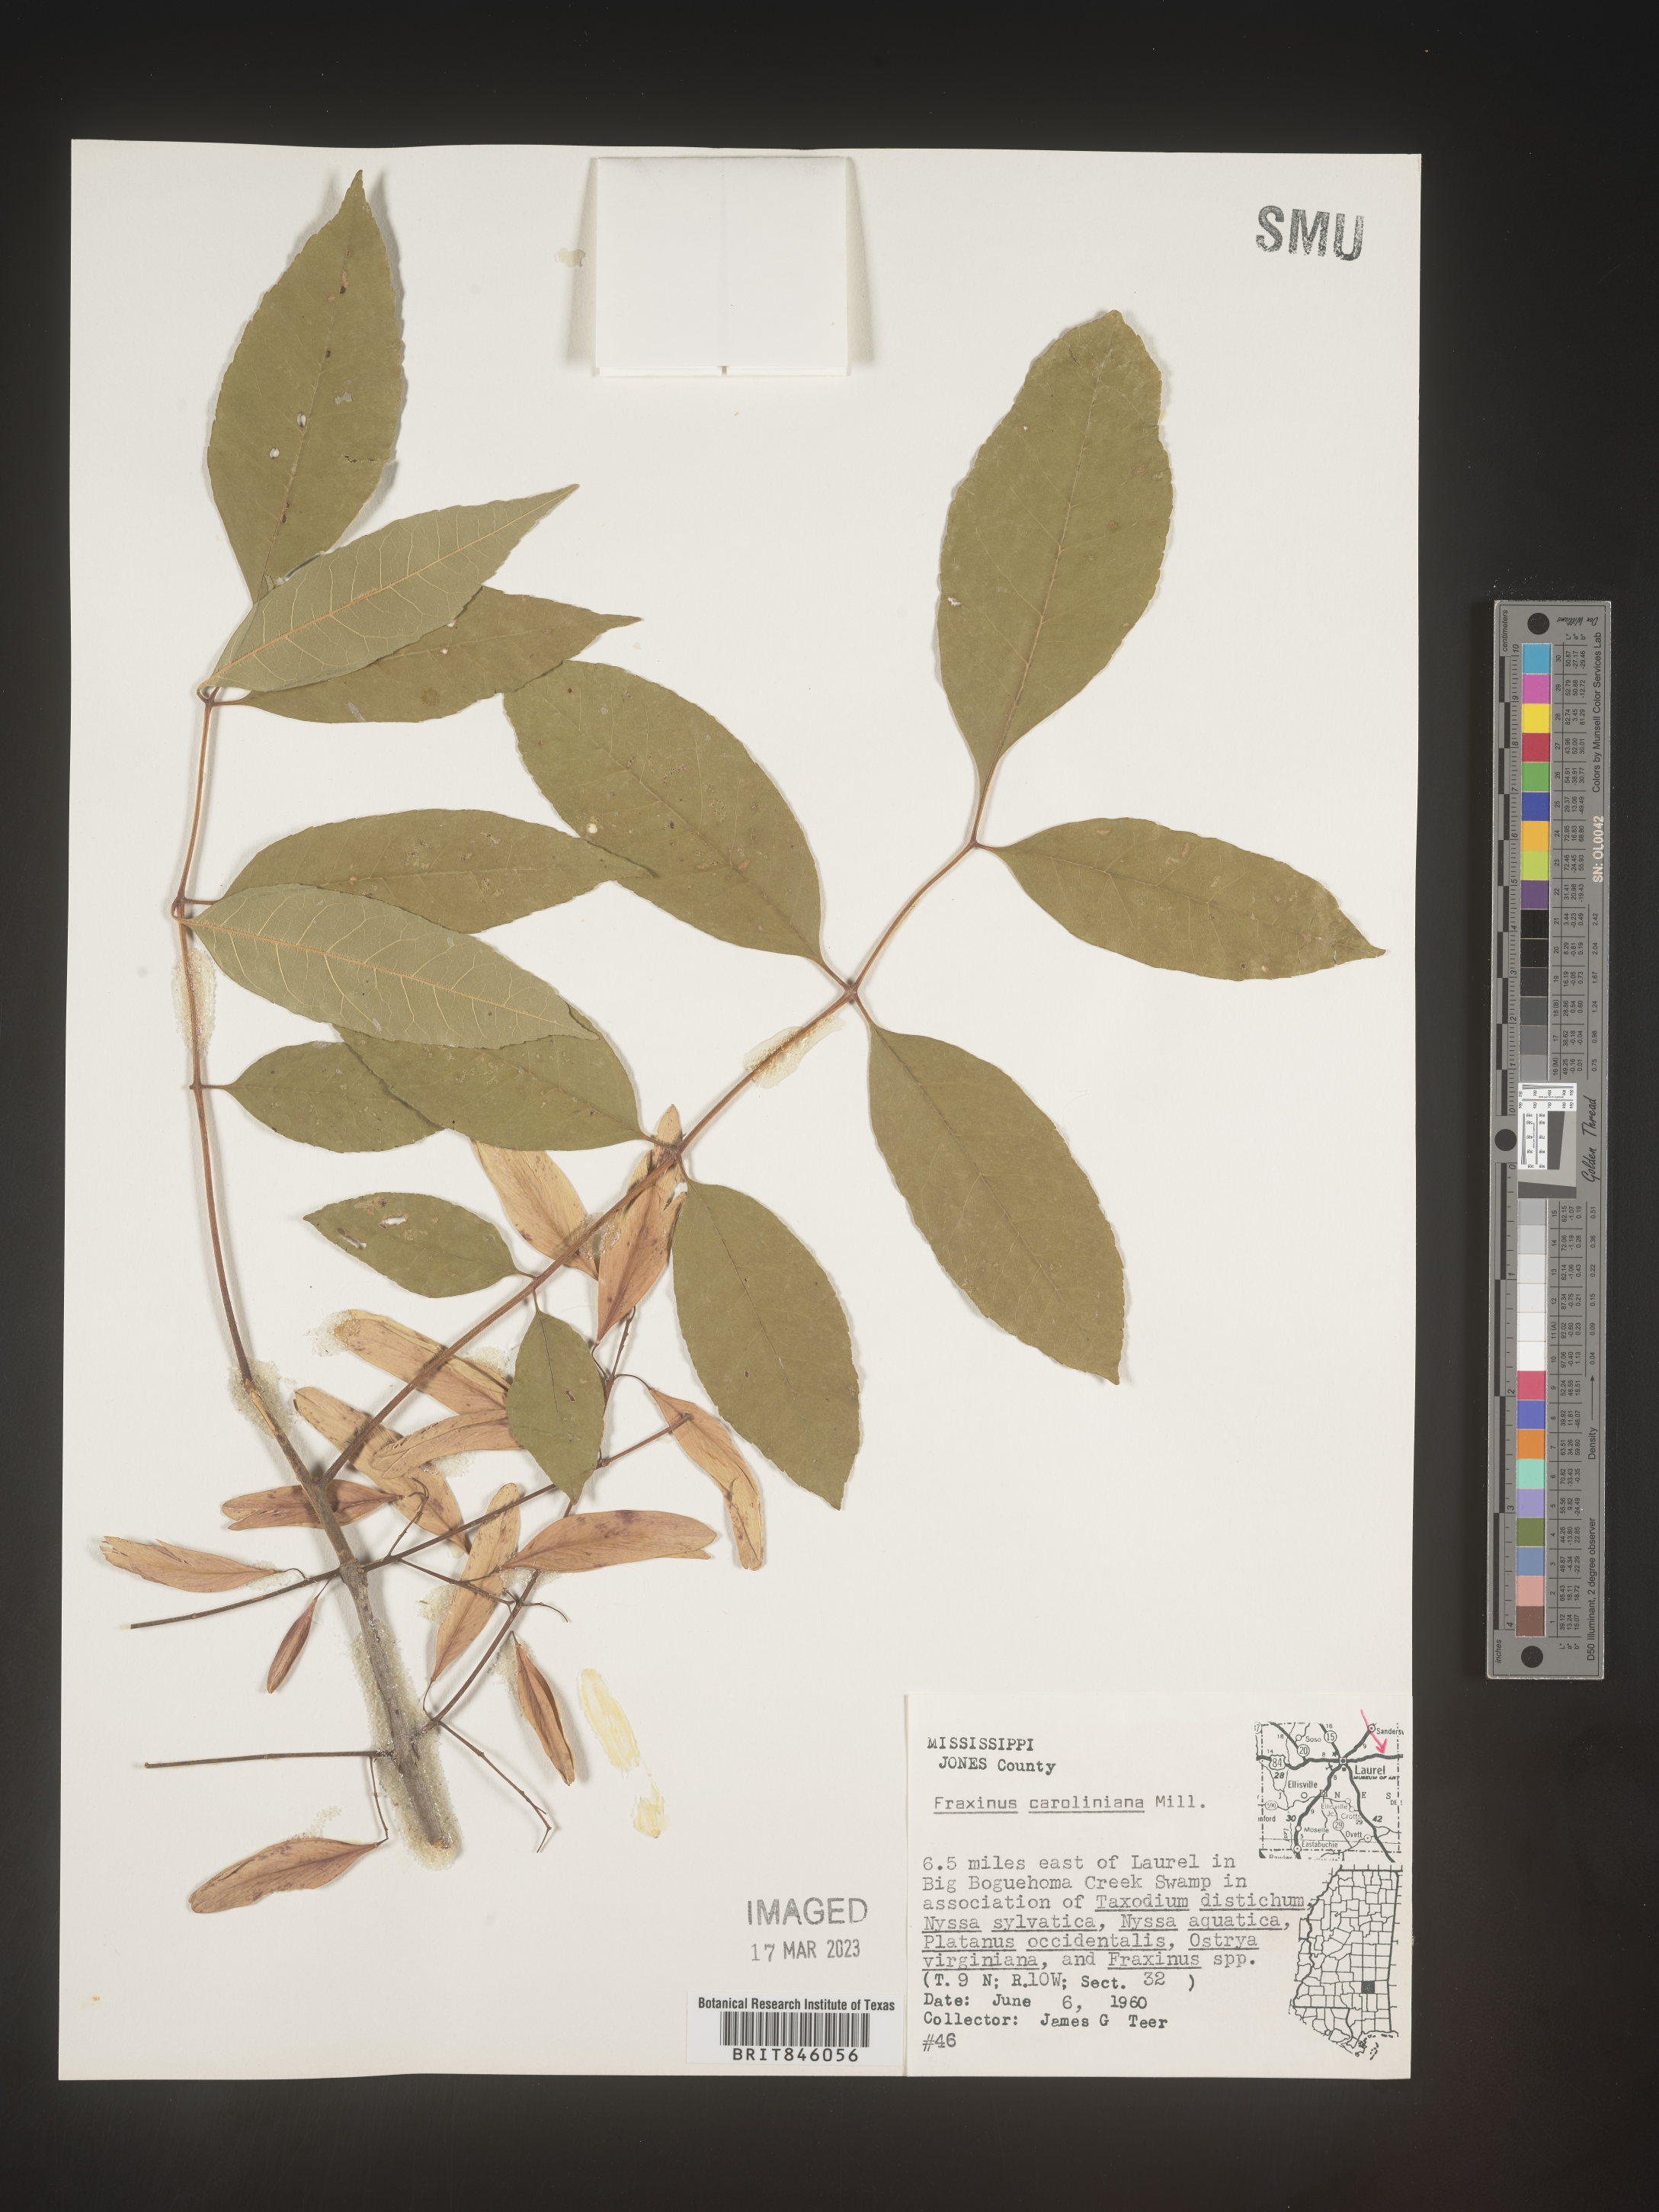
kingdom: Plantae
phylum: Tracheophyta
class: Magnoliopsida
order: Lamiales
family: Oleaceae
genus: Fraxinus
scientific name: Fraxinus caroliniana
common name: Carolina ash
